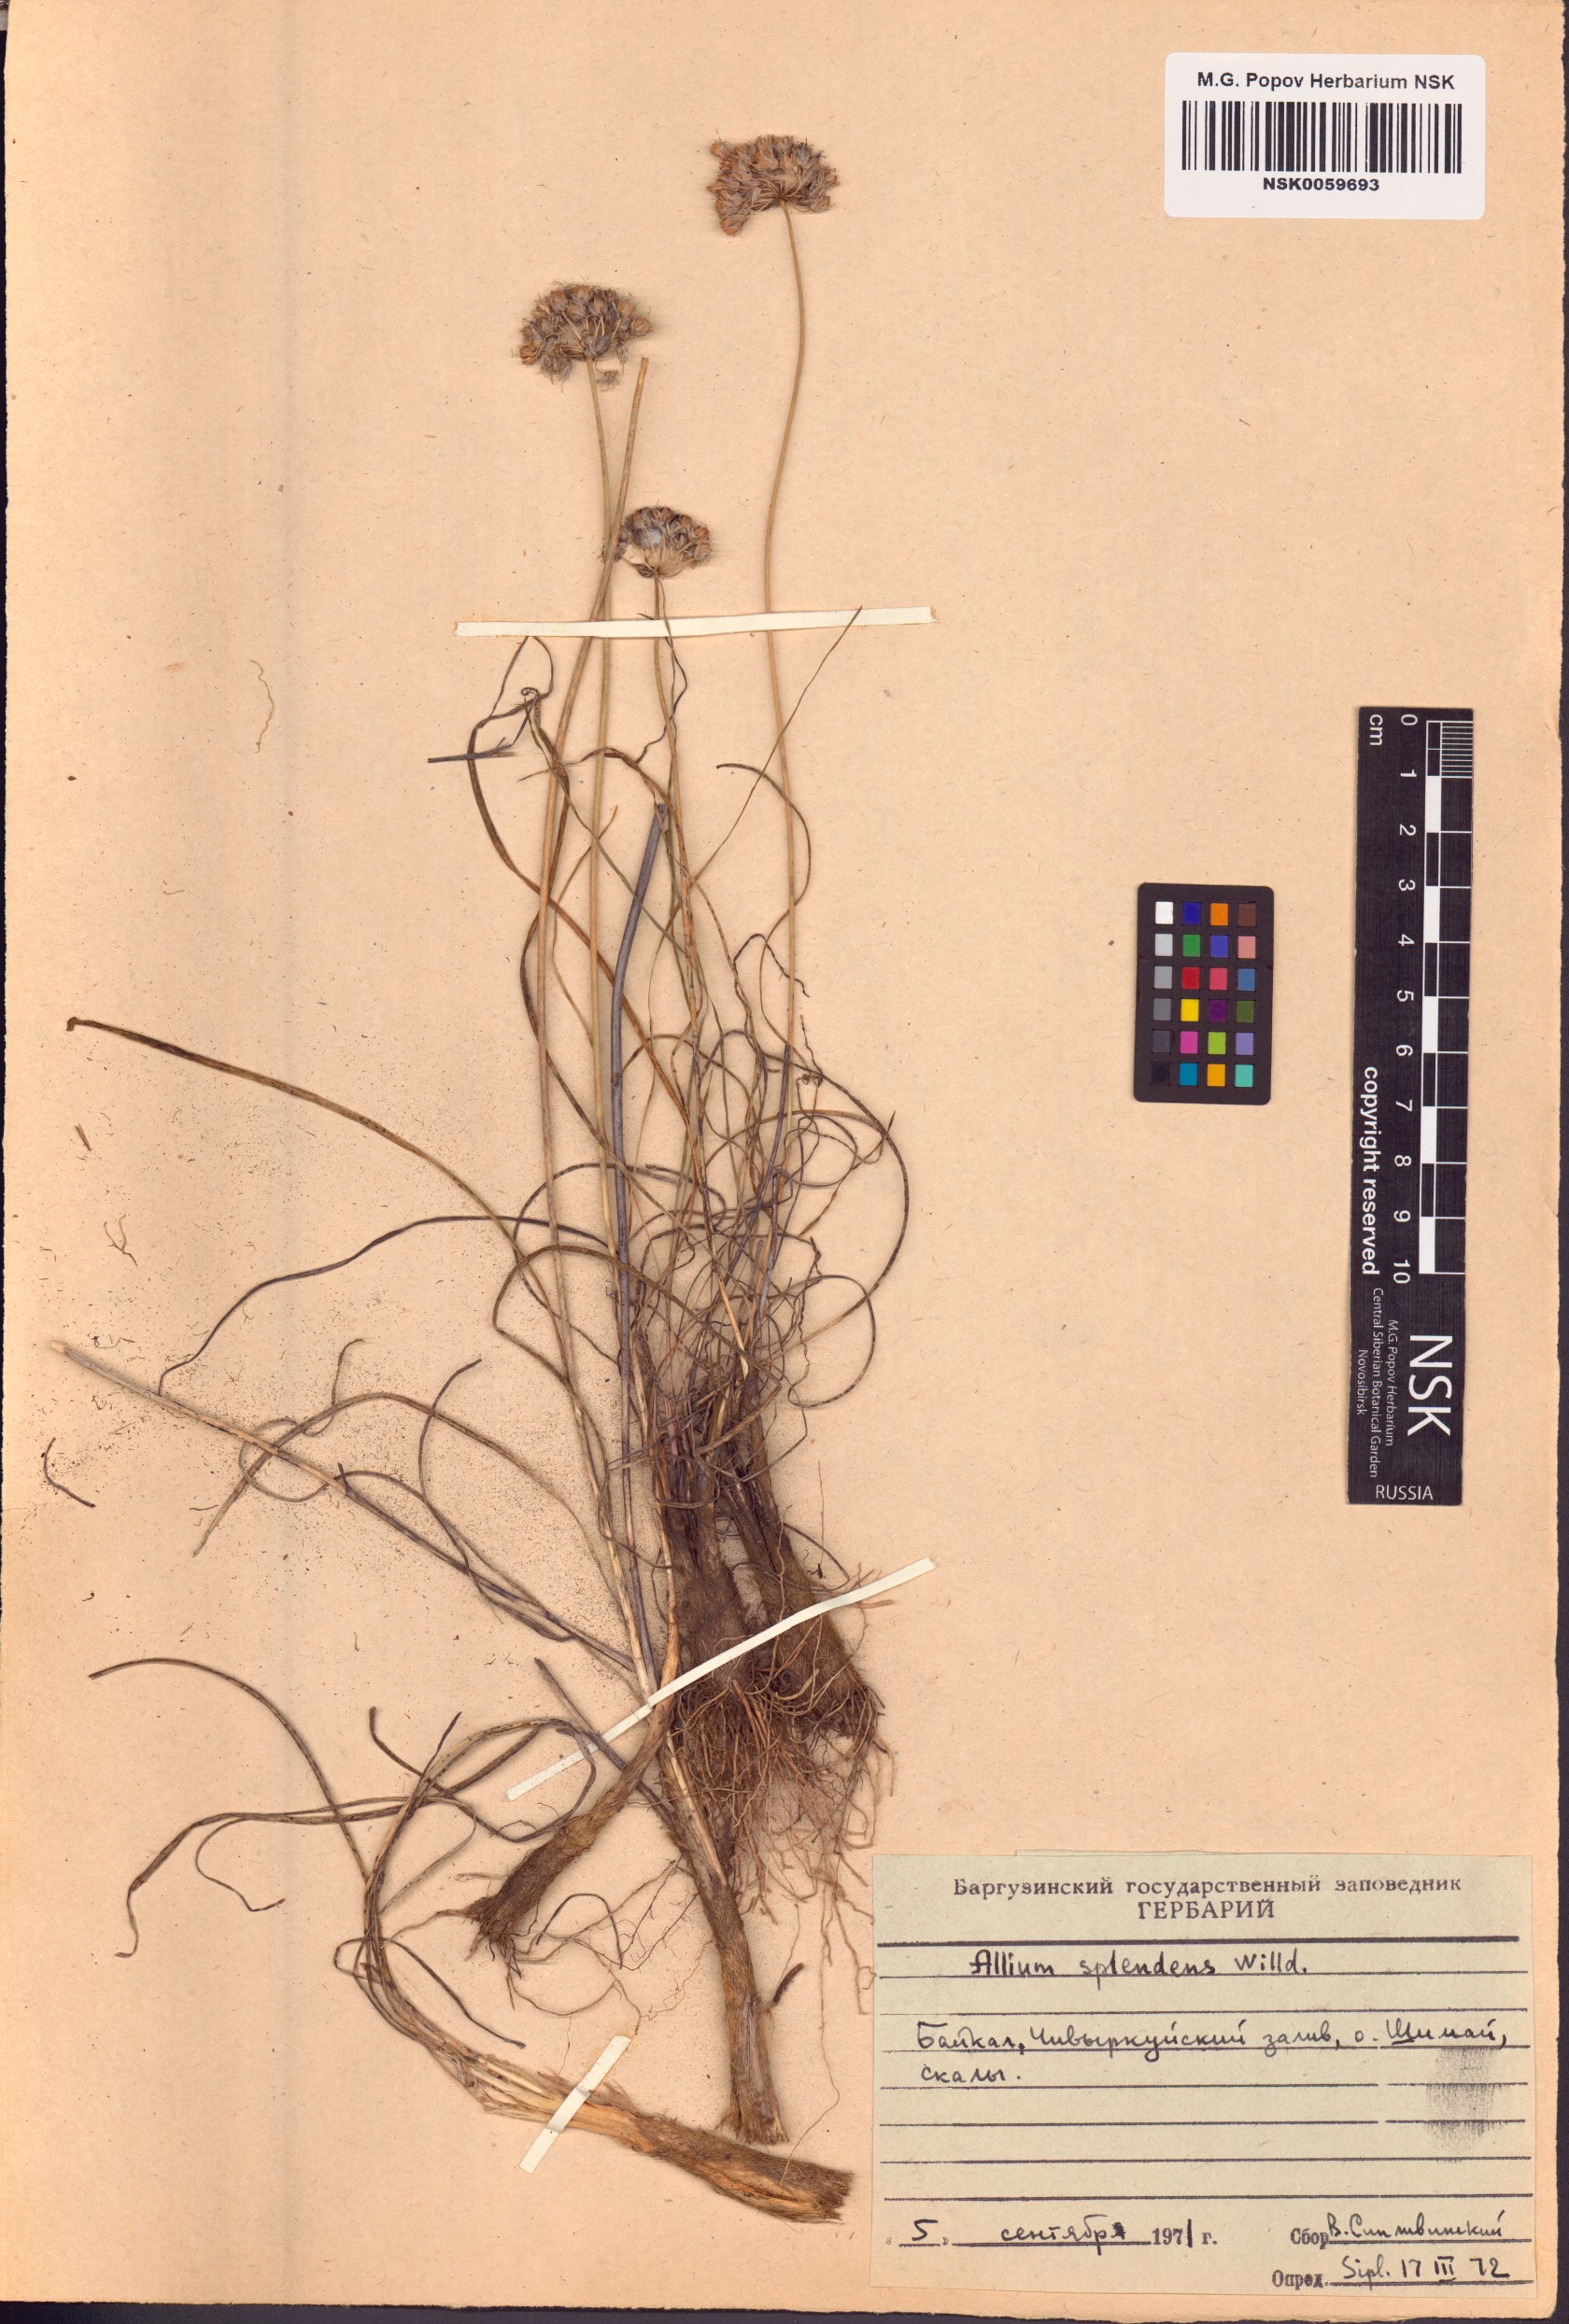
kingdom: Plantae
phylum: Tracheophyta
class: Liliopsida
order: Asparagales
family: Amaryllidaceae
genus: Allium
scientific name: Allium splendens
